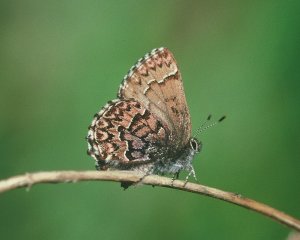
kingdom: Animalia
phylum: Arthropoda
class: Insecta
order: Lepidoptera
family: Lycaenidae
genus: Incisalia
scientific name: Incisalia eryphon
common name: Western Pine Elfin
